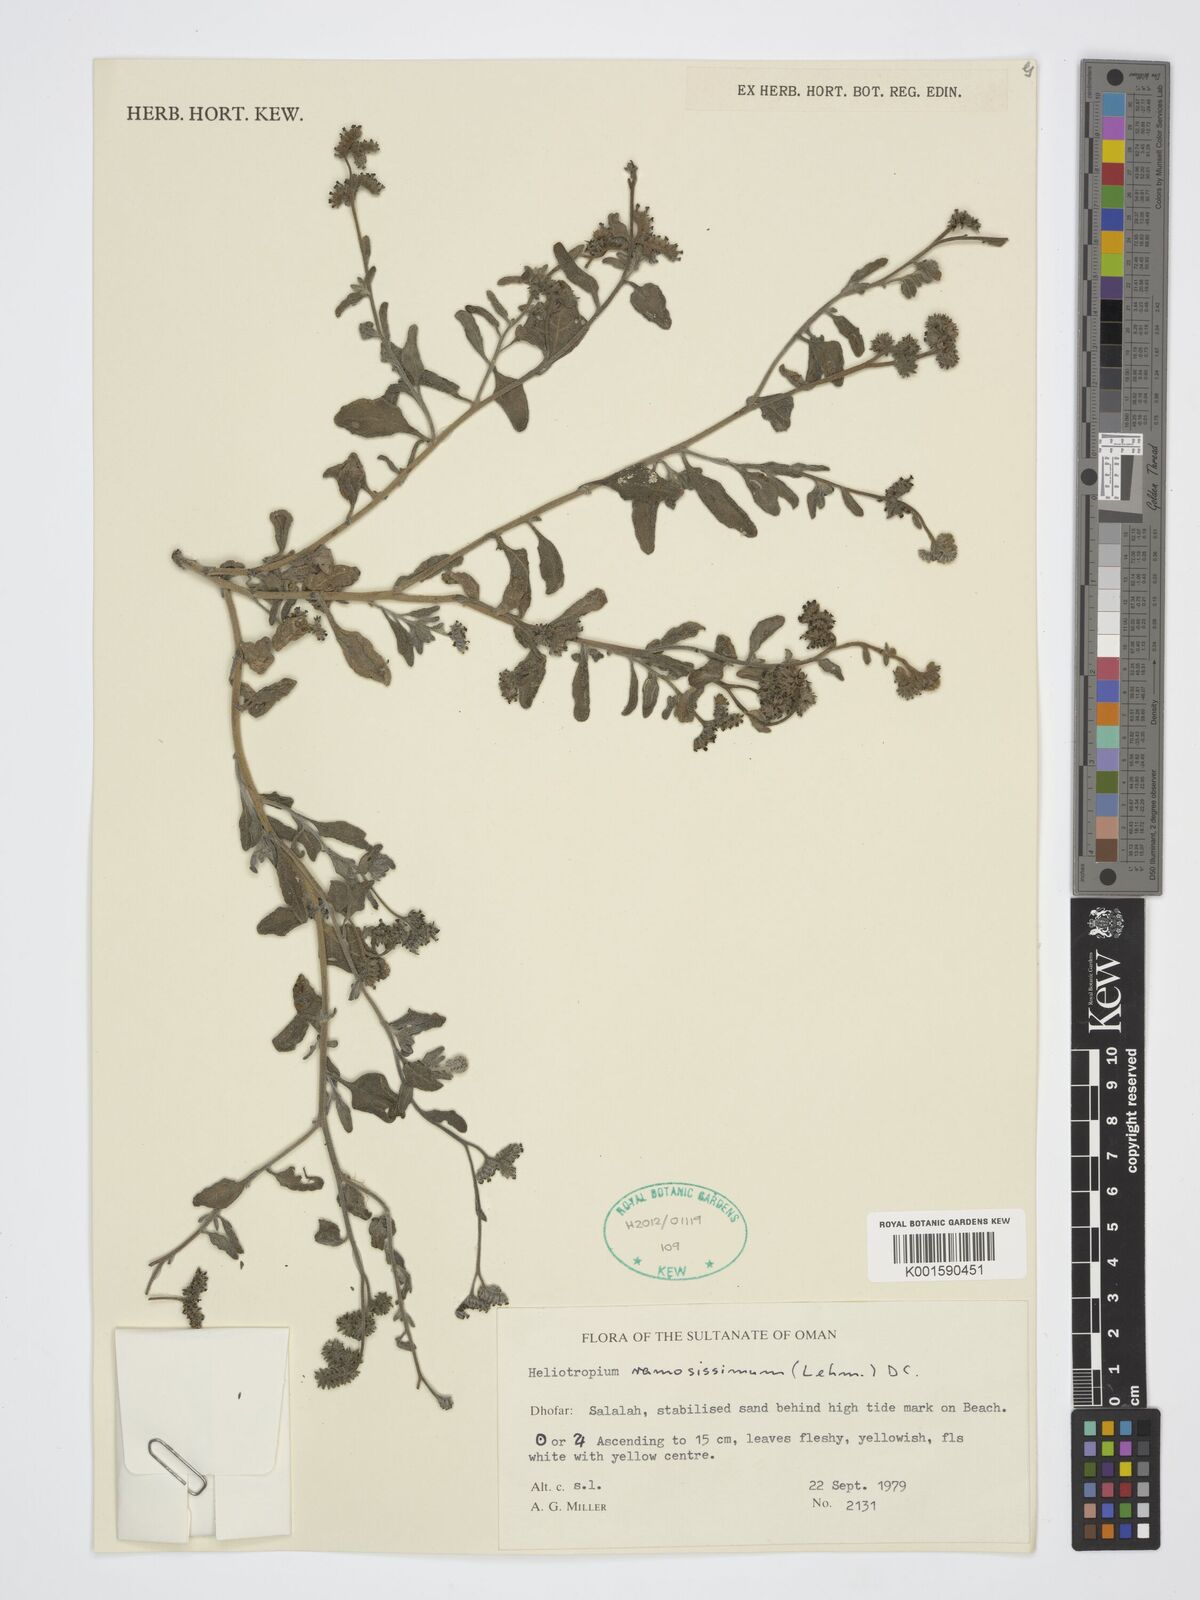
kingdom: Plantae
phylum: Tracheophyta
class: Magnoliopsida
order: Boraginales
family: Heliotropiaceae
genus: Heliotropium
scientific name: Heliotropium ramosissimum
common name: Wavy heliotrope
